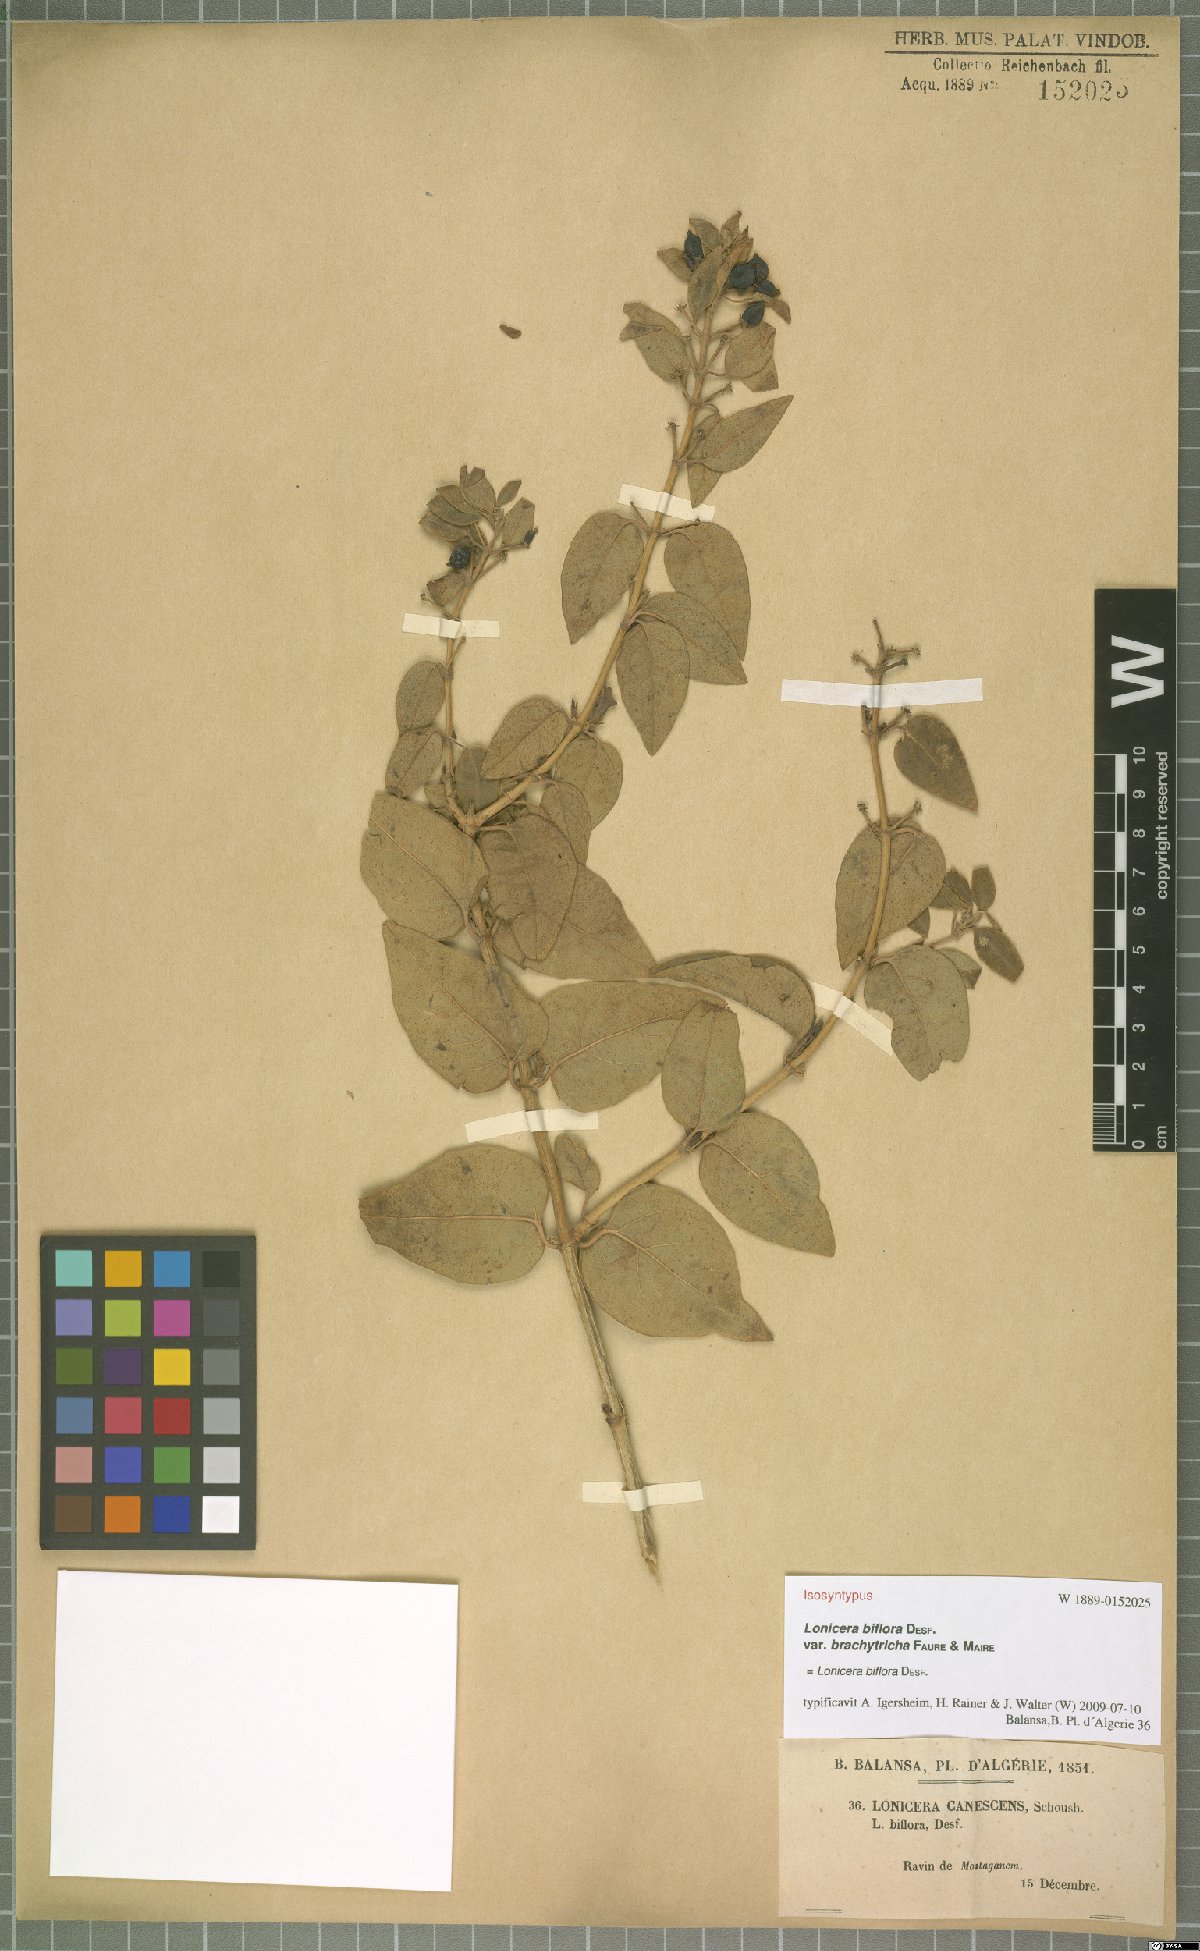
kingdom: Plantae
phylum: Tracheophyta
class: Magnoliopsida
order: Dipsacales
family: Caprifoliaceae
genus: Lonicera
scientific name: Lonicera biflora
